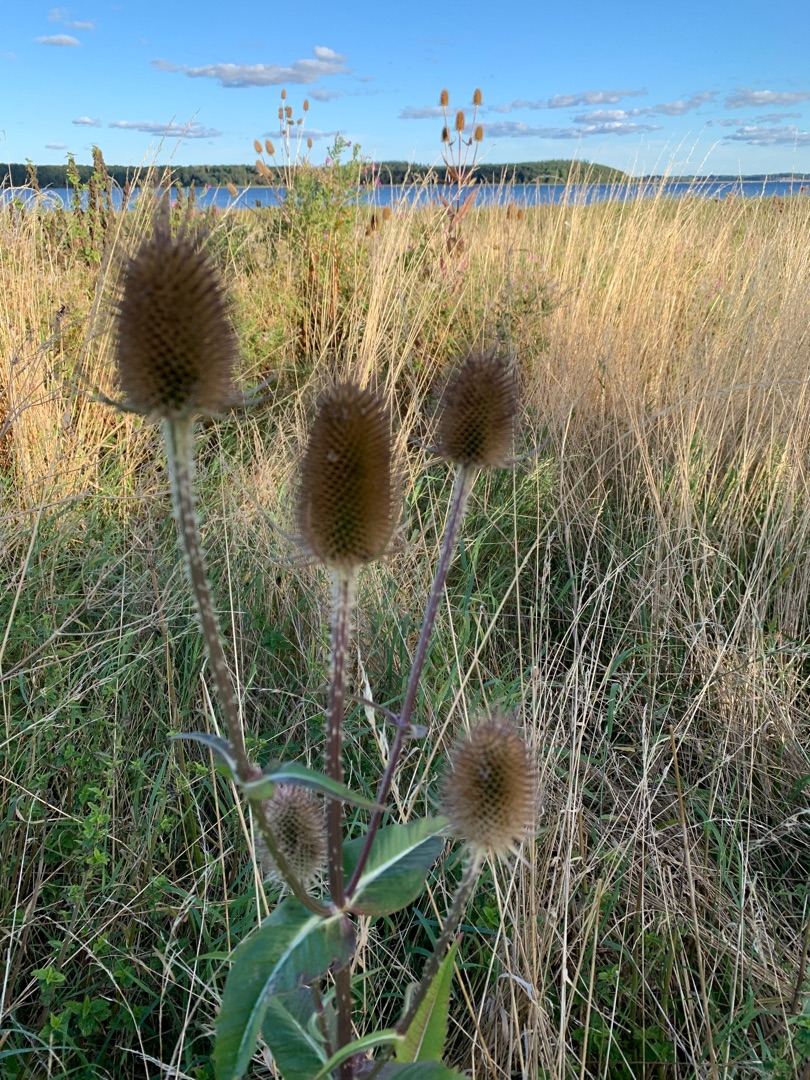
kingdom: Plantae
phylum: Tracheophyta
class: Magnoliopsida
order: Dipsacales
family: Caprifoliaceae
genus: Dipsacus
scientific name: Dipsacus fullonum
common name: Gærde-kartebolle
